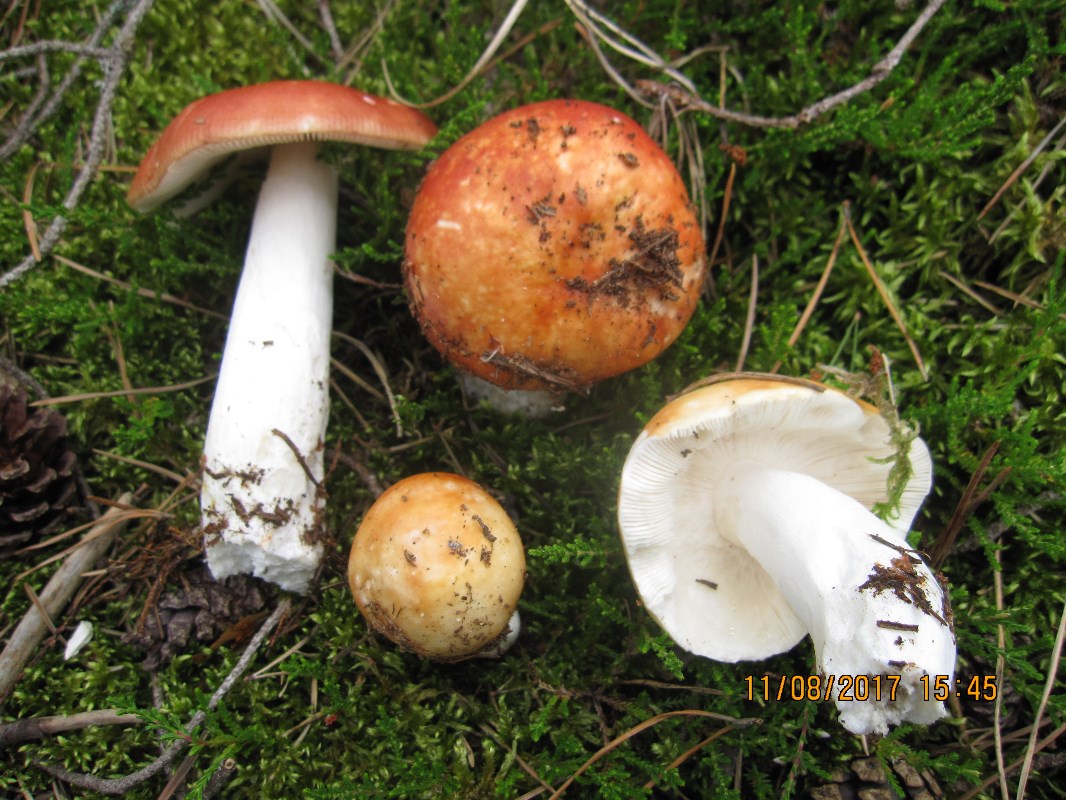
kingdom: Fungi
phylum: Basidiomycota
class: Agaricomycetes
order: Russulales
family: Russulaceae
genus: Russula
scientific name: Russula paludosa
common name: prægtig skørhat
